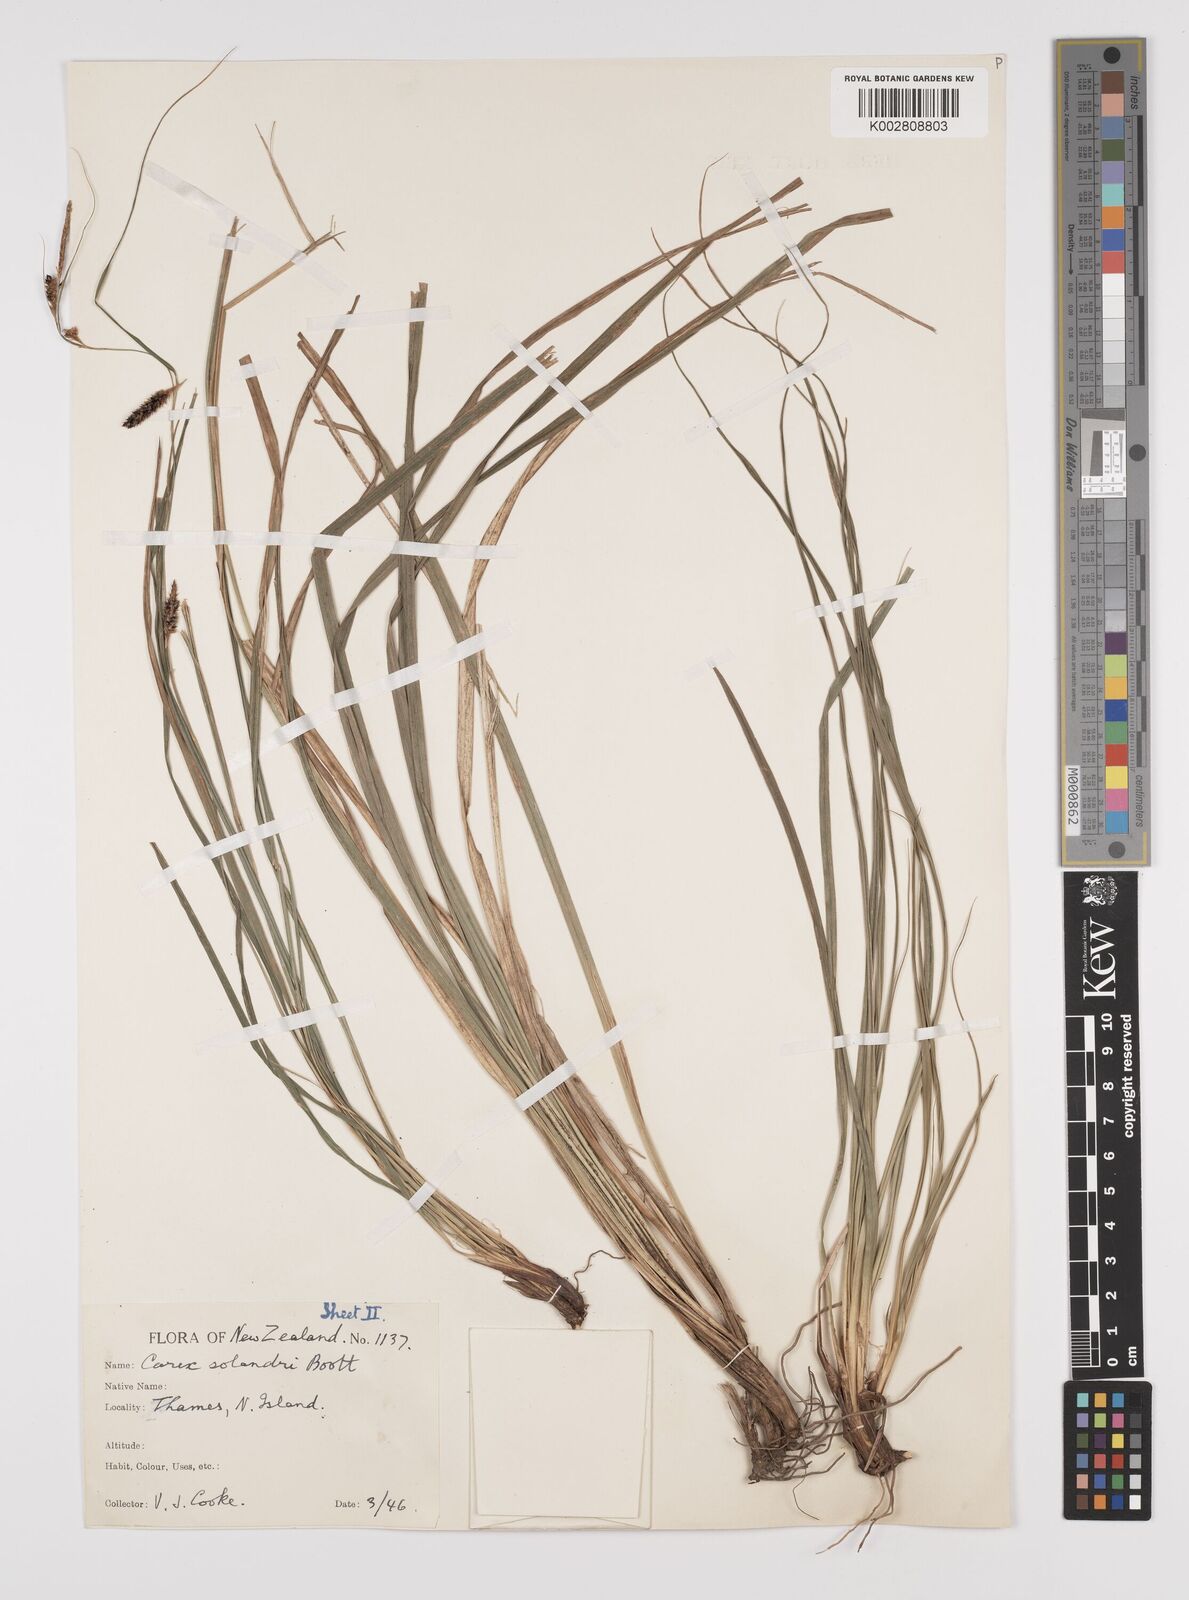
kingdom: Plantae
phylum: Tracheophyta
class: Liliopsida
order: Poales
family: Cyperaceae
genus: Carex
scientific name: Carex dissita
